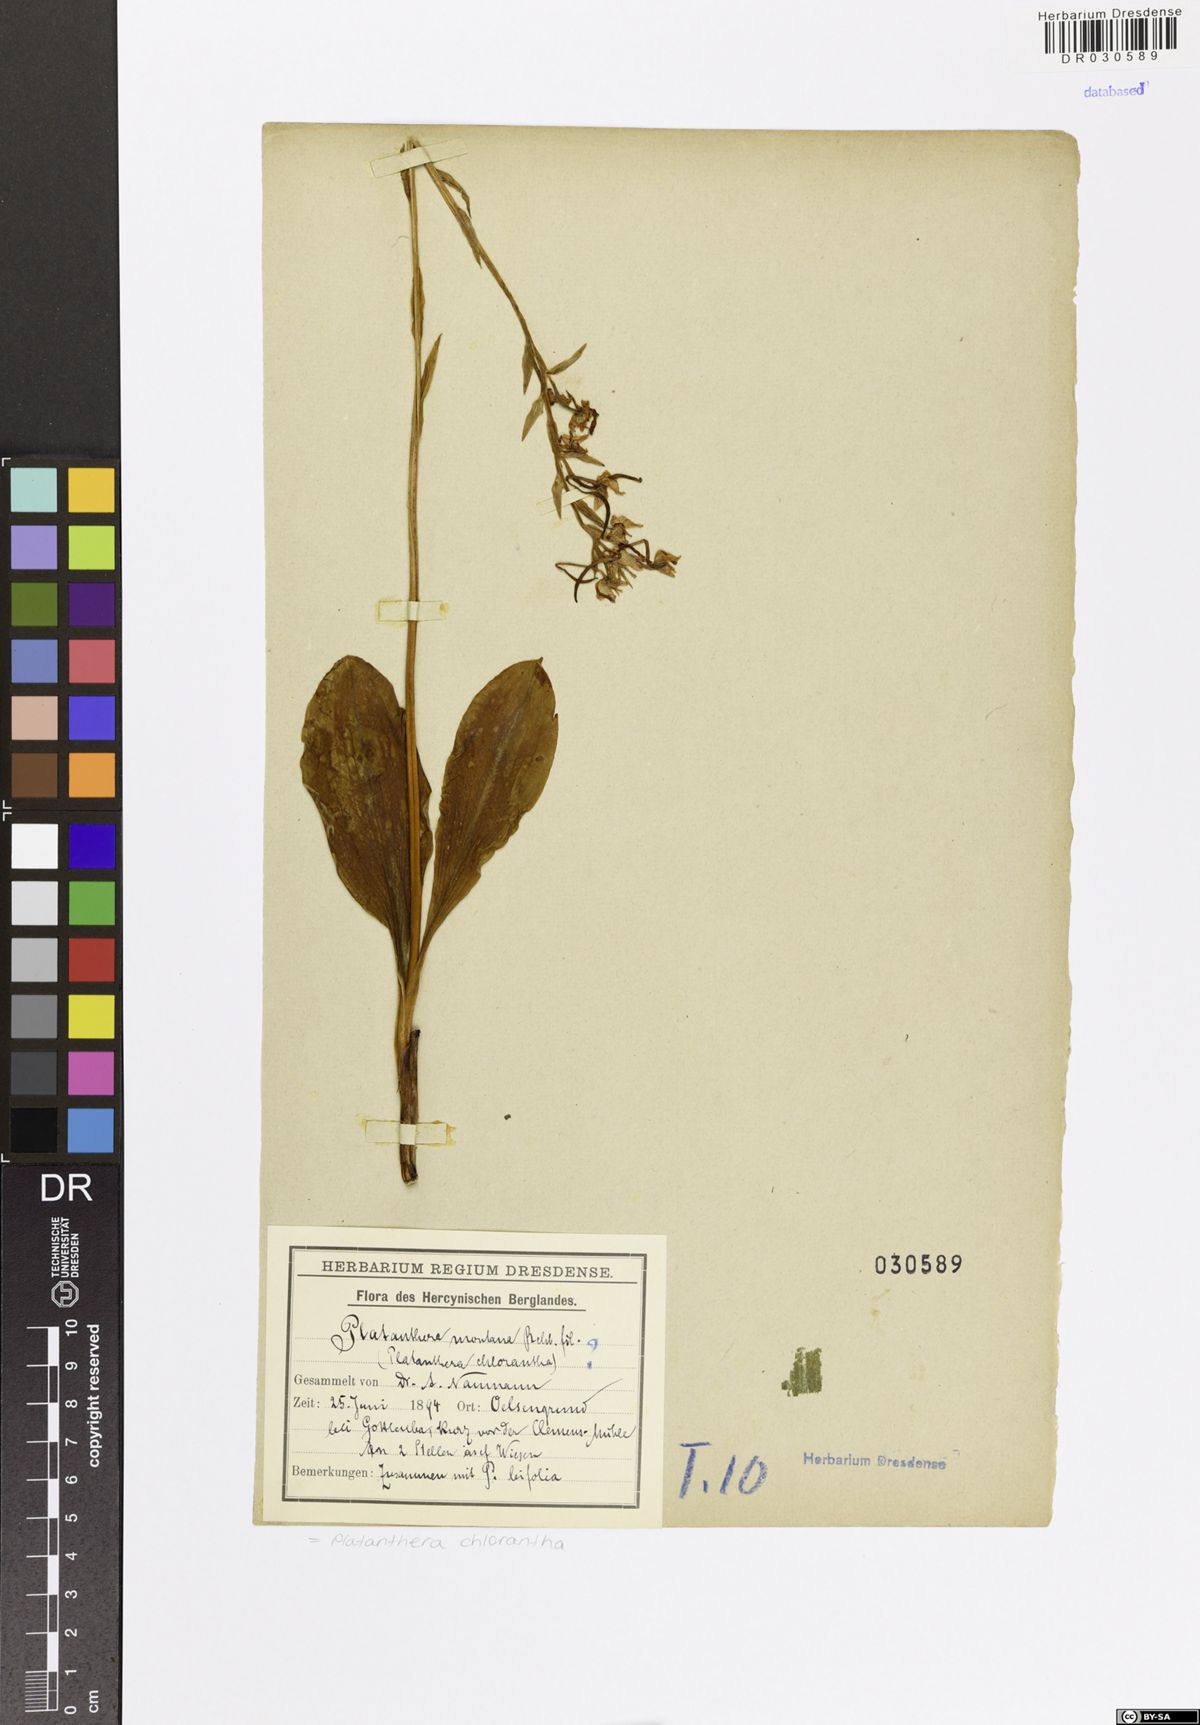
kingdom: Plantae
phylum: Tracheophyta
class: Liliopsida
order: Asparagales
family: Orchidaceae
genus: Platanthera
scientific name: Platanthera chlorantha
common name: Greater butterfly-orchid
